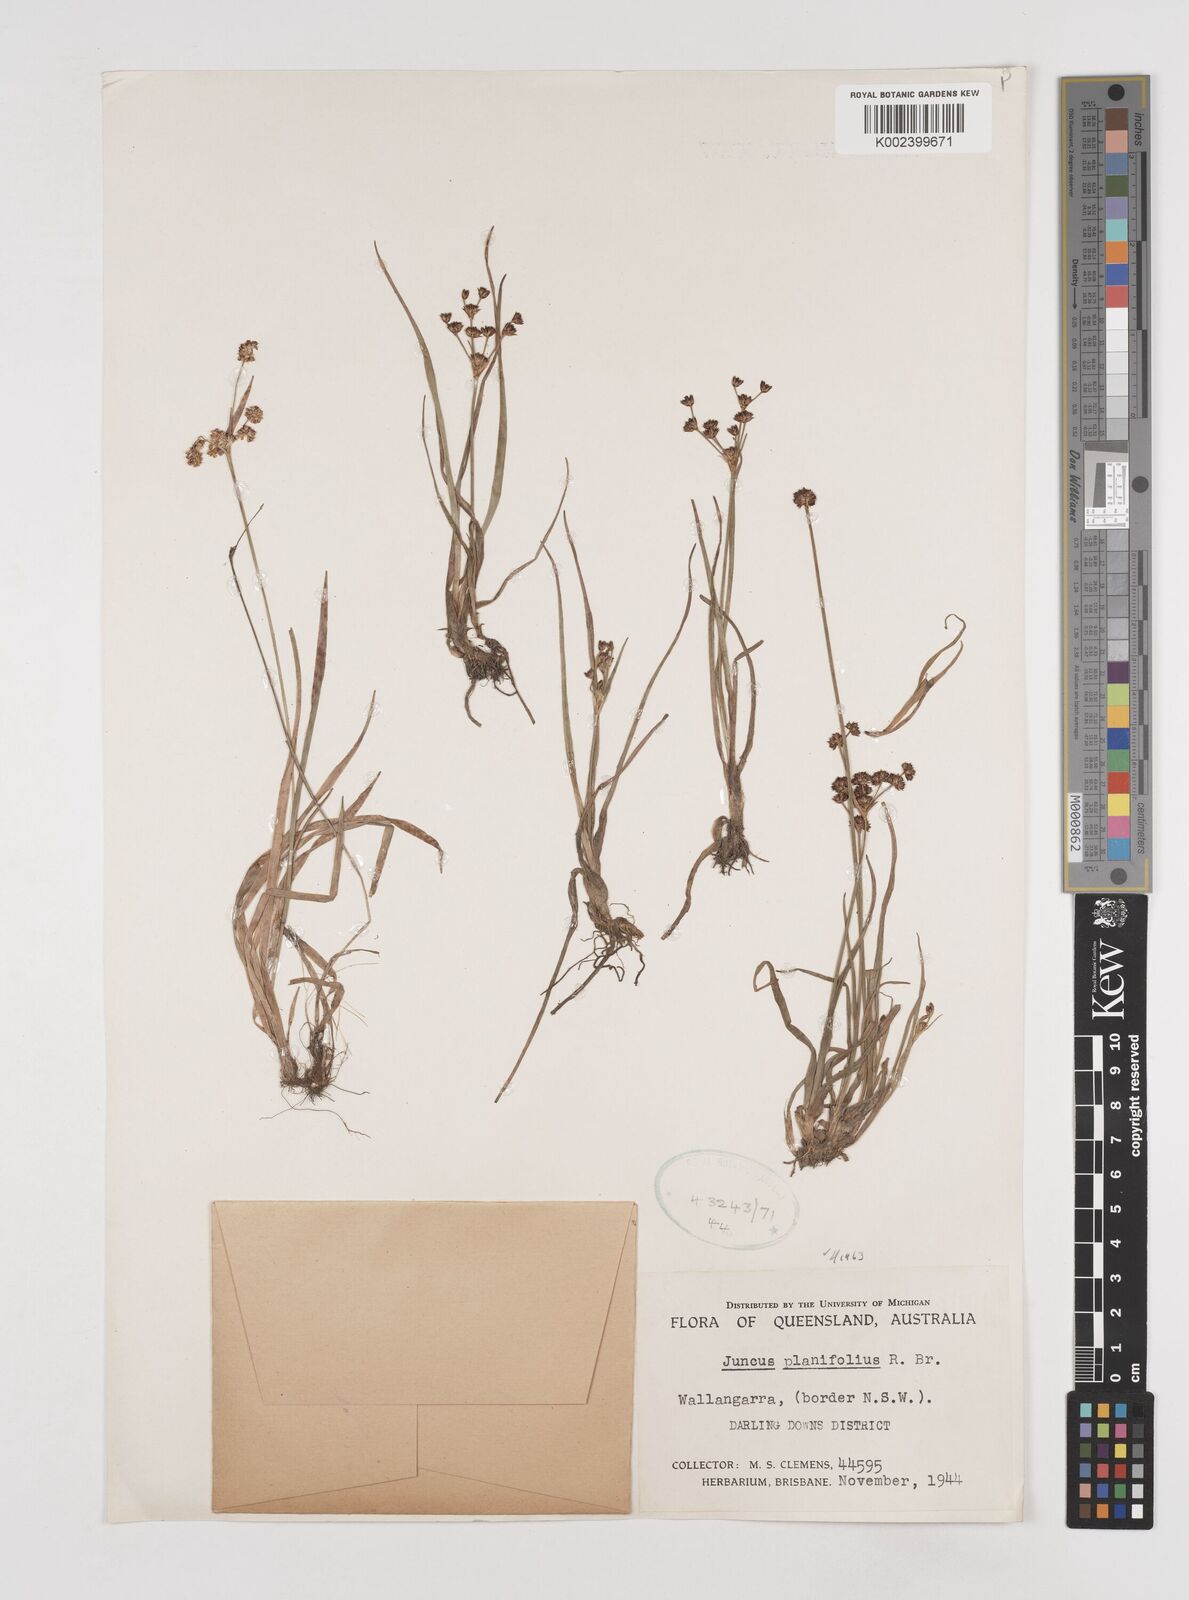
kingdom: Plantae
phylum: Tracheophyta
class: Liliopsida
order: Poales
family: Juncaceae
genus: Juncus
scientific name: Juncus planifolius
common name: Broadleaf rush
